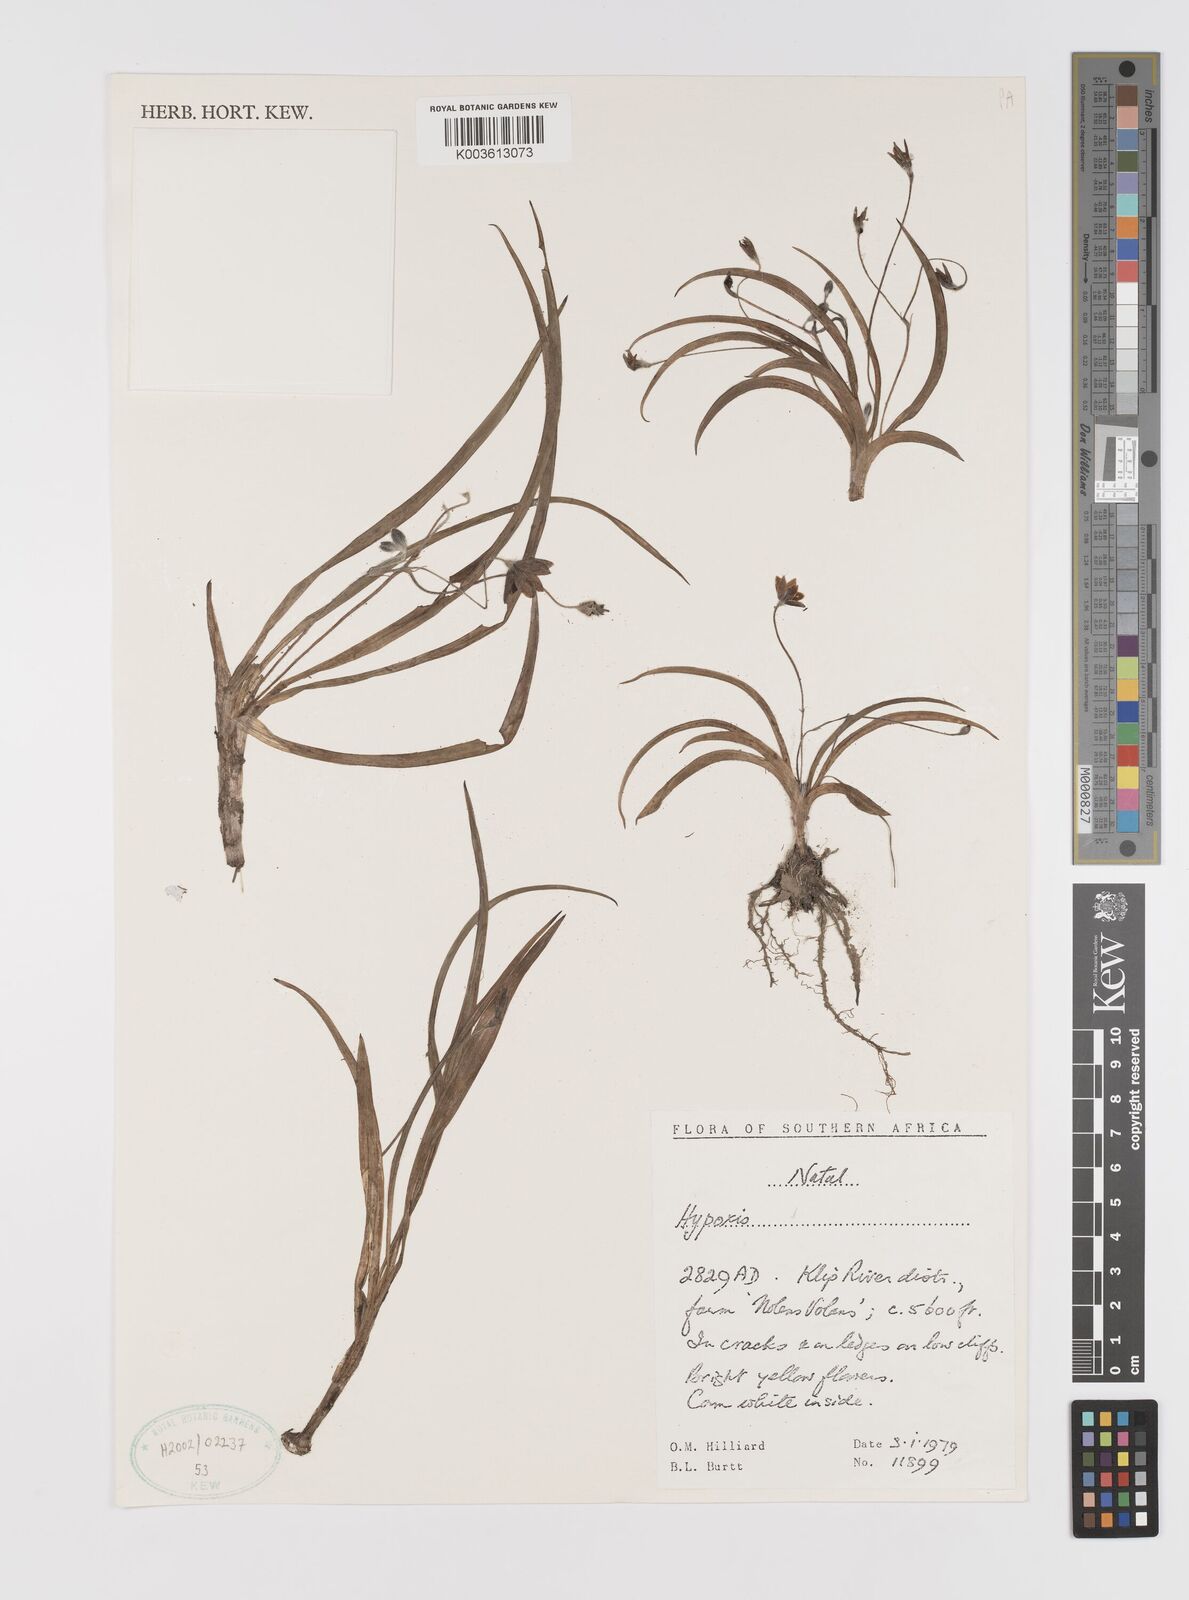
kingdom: Plantae
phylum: Tracheophyta
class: Liliopsida
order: Asparagales
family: Hypoxidaceae
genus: Hypoxis
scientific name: Hypoxis
